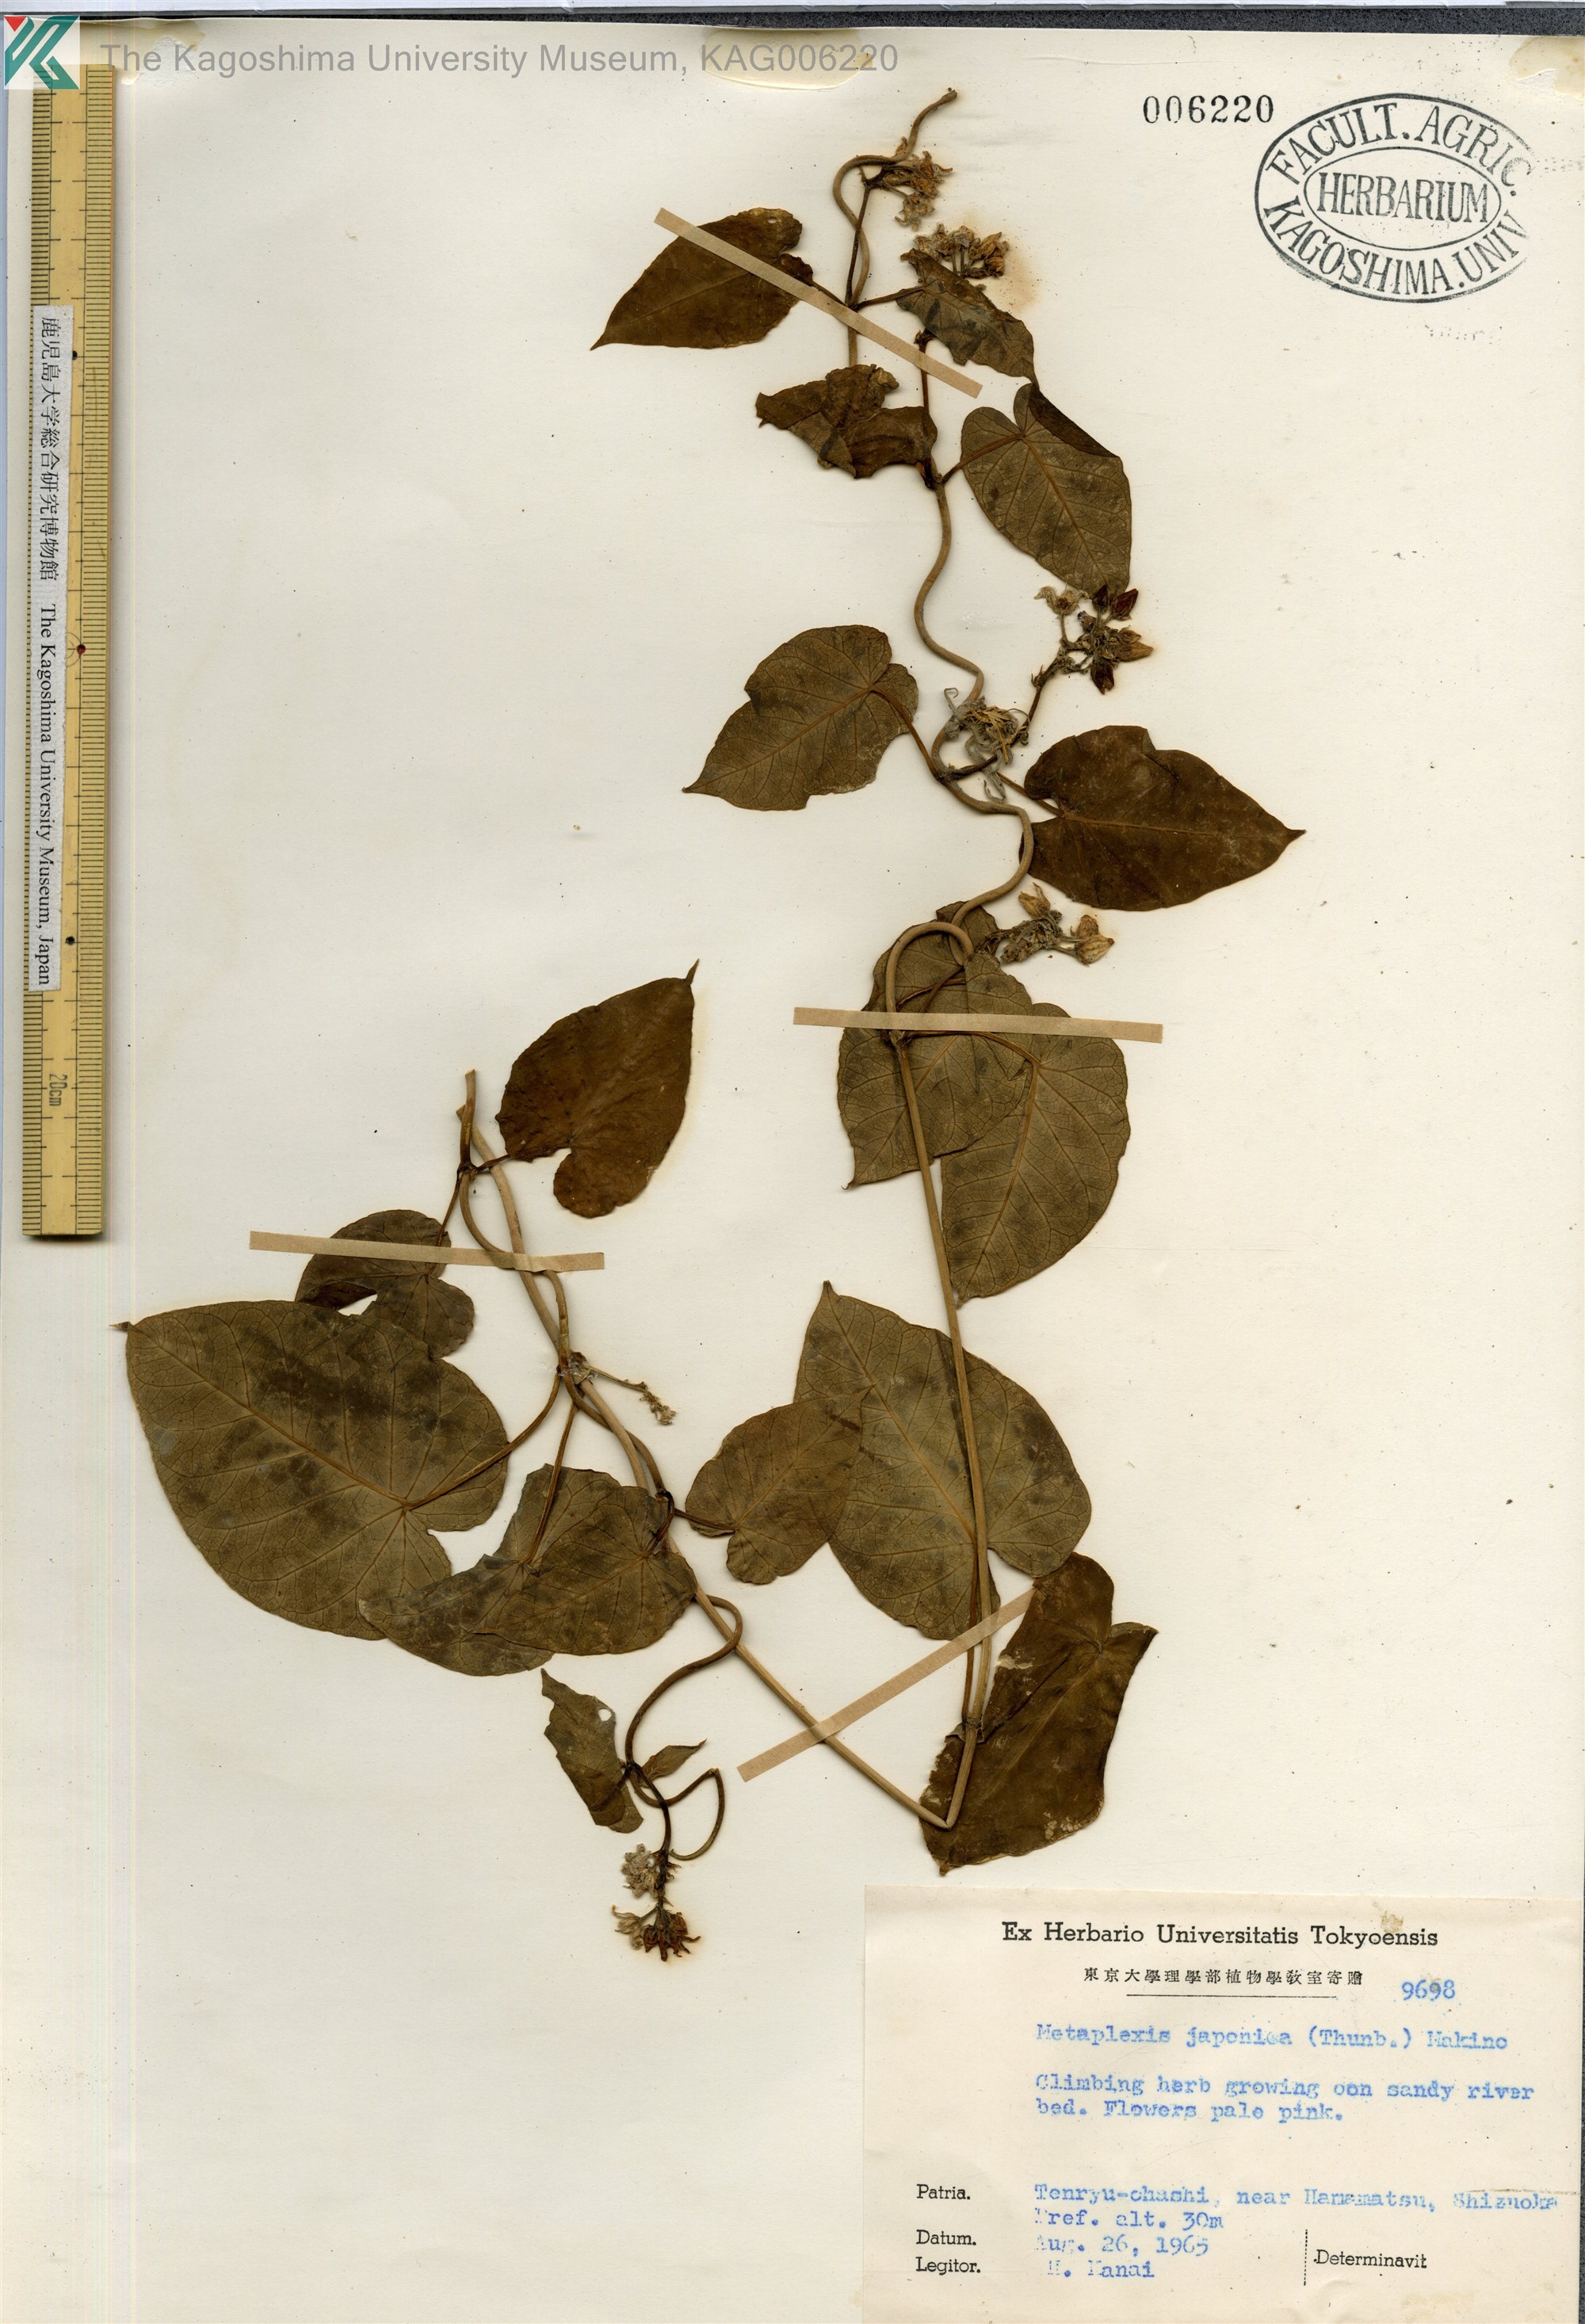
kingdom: Plantae
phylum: Tracheophyta
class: Magnoliopsida
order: Gentianales
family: Apocynaceae
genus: Cynanchum
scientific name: Cynanchum rostellatum
